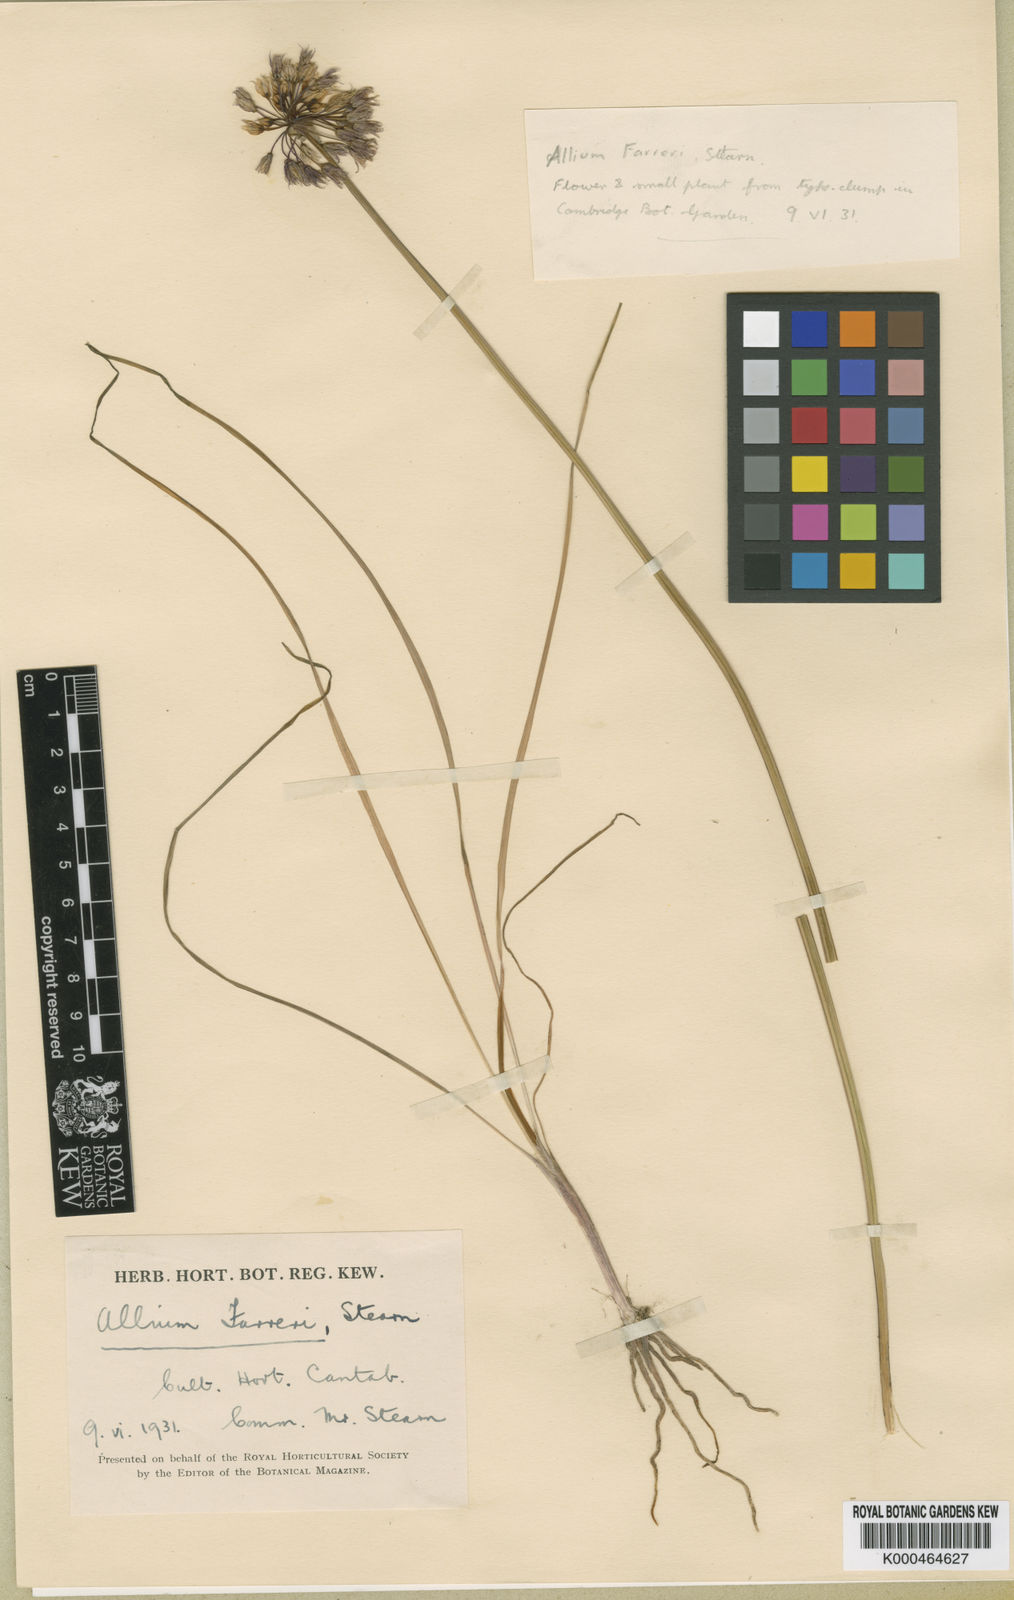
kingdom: Plantae
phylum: Tracheophyta
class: Liliopsida
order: Asparagales
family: Amaryllidaceae
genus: Allium
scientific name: Allium farreri
